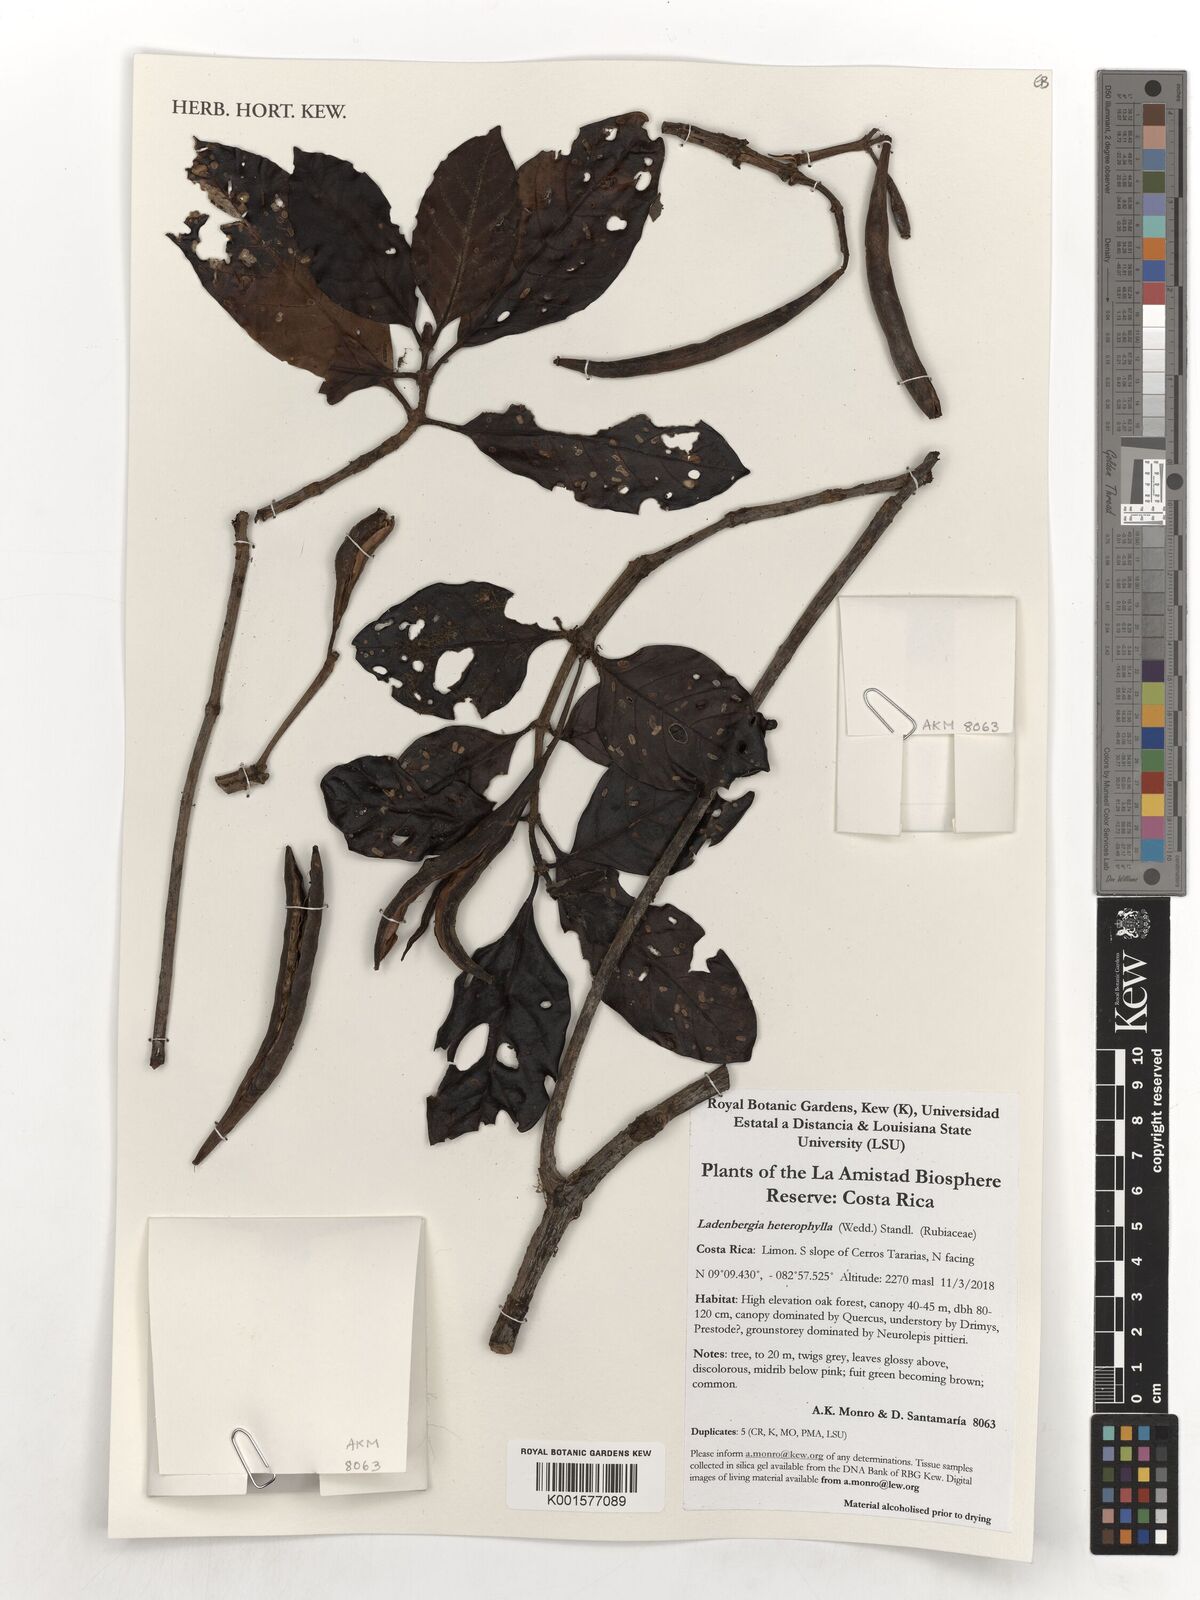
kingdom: Plantae
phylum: Tracheophyta
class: Magnoliopsida
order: Gentianales
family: Rubiaceae
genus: Ladenbergia
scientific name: Ladenbergia heterophylla
